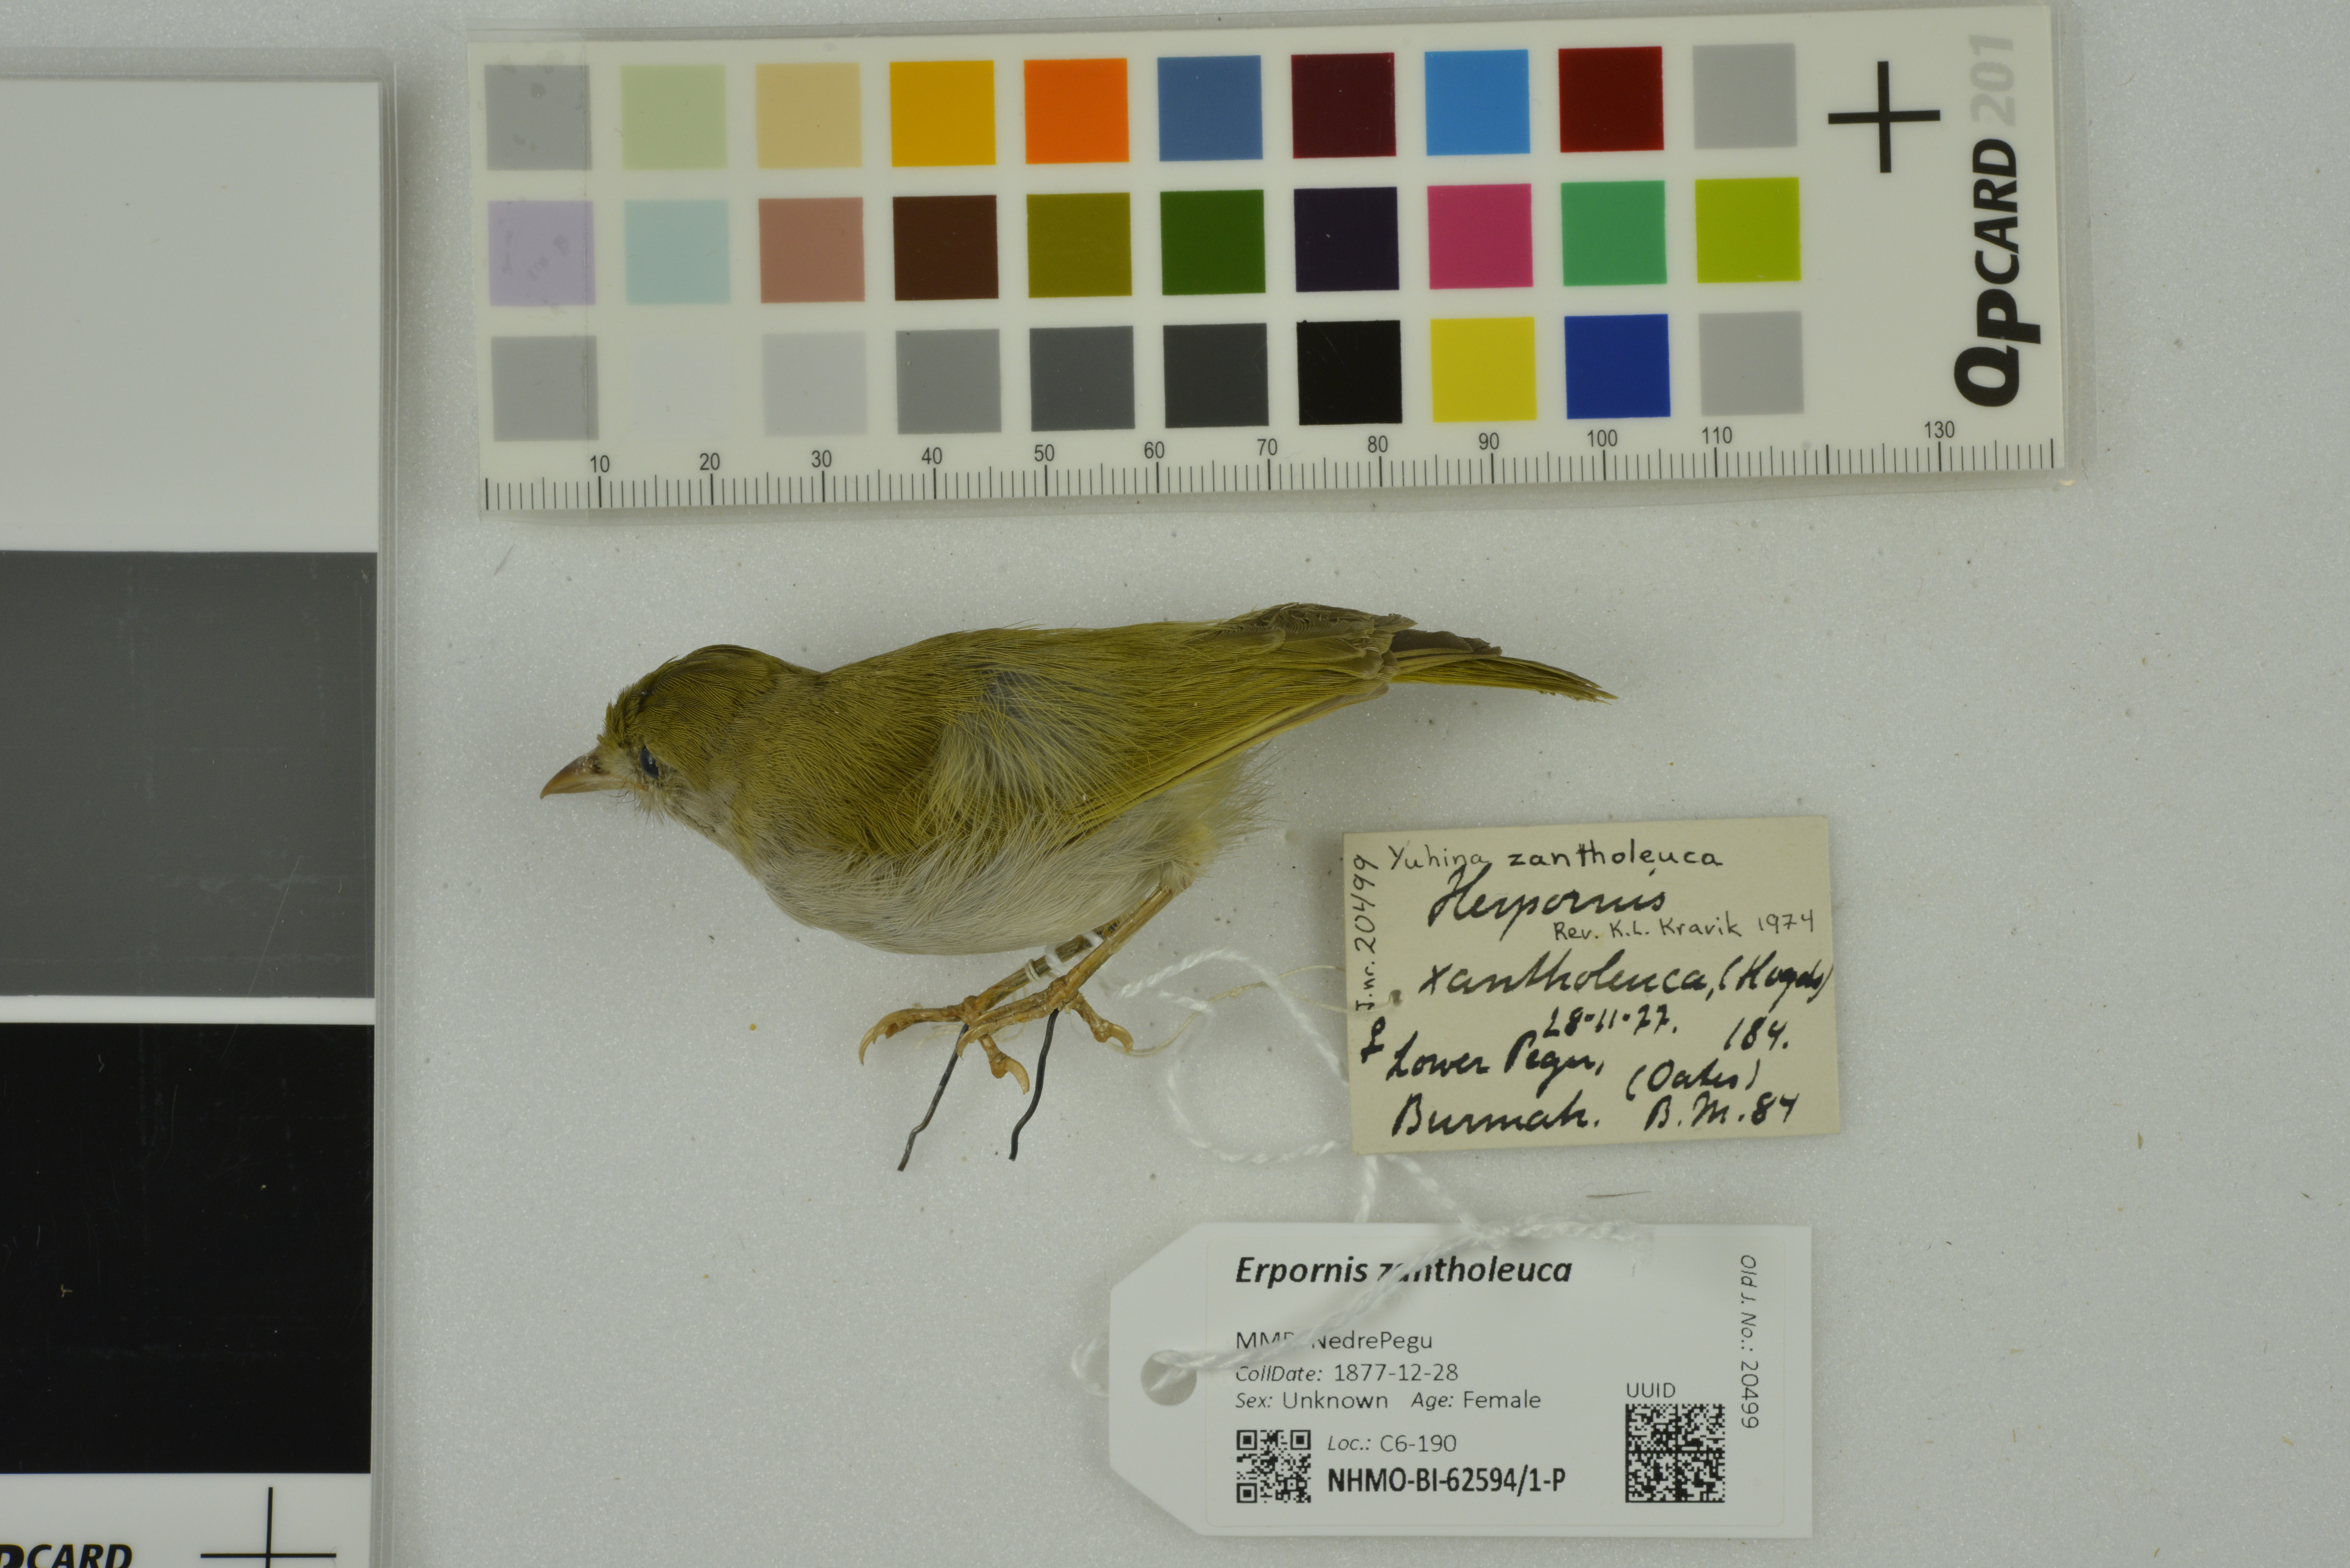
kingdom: Animalia
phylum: Chordata
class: Aves
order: Passeriformes
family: Vireonidae
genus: Erpornis
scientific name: Erpornis zantholeuca
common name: White-bellied erpornis
